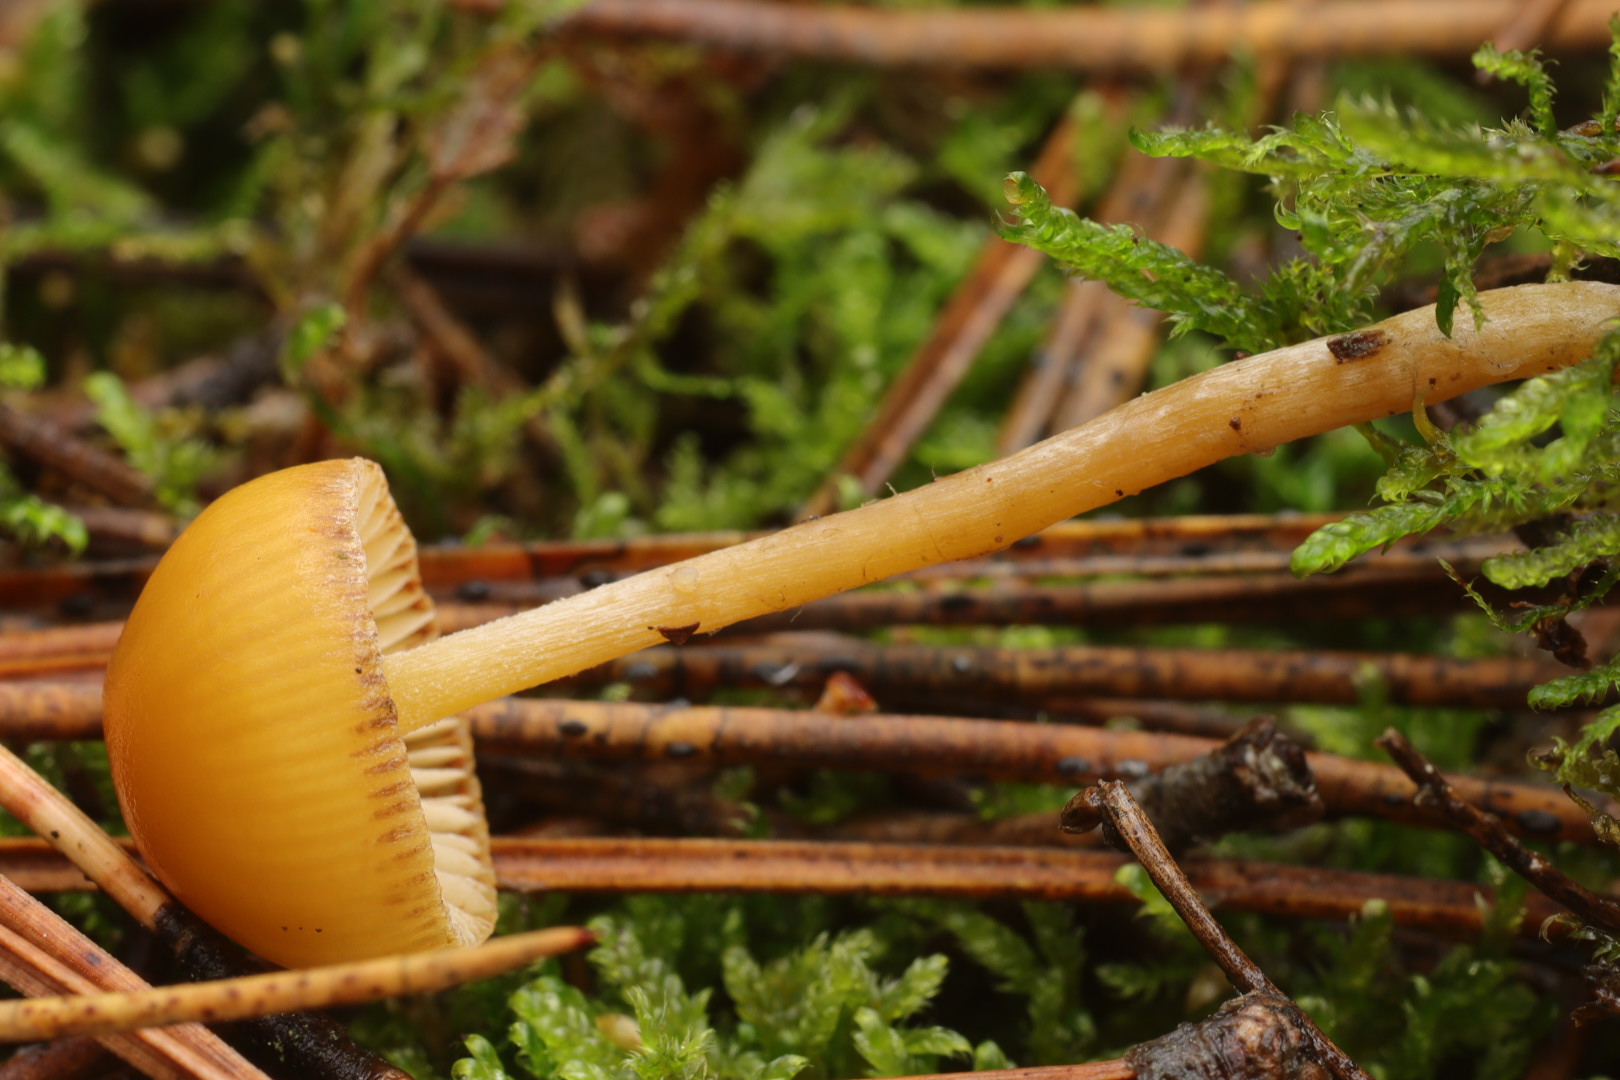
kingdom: Fungi
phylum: Basidiomycota
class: Agaricomycetes
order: Agaricales
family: Hymenogastraceae
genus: Galerina
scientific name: Galerina
